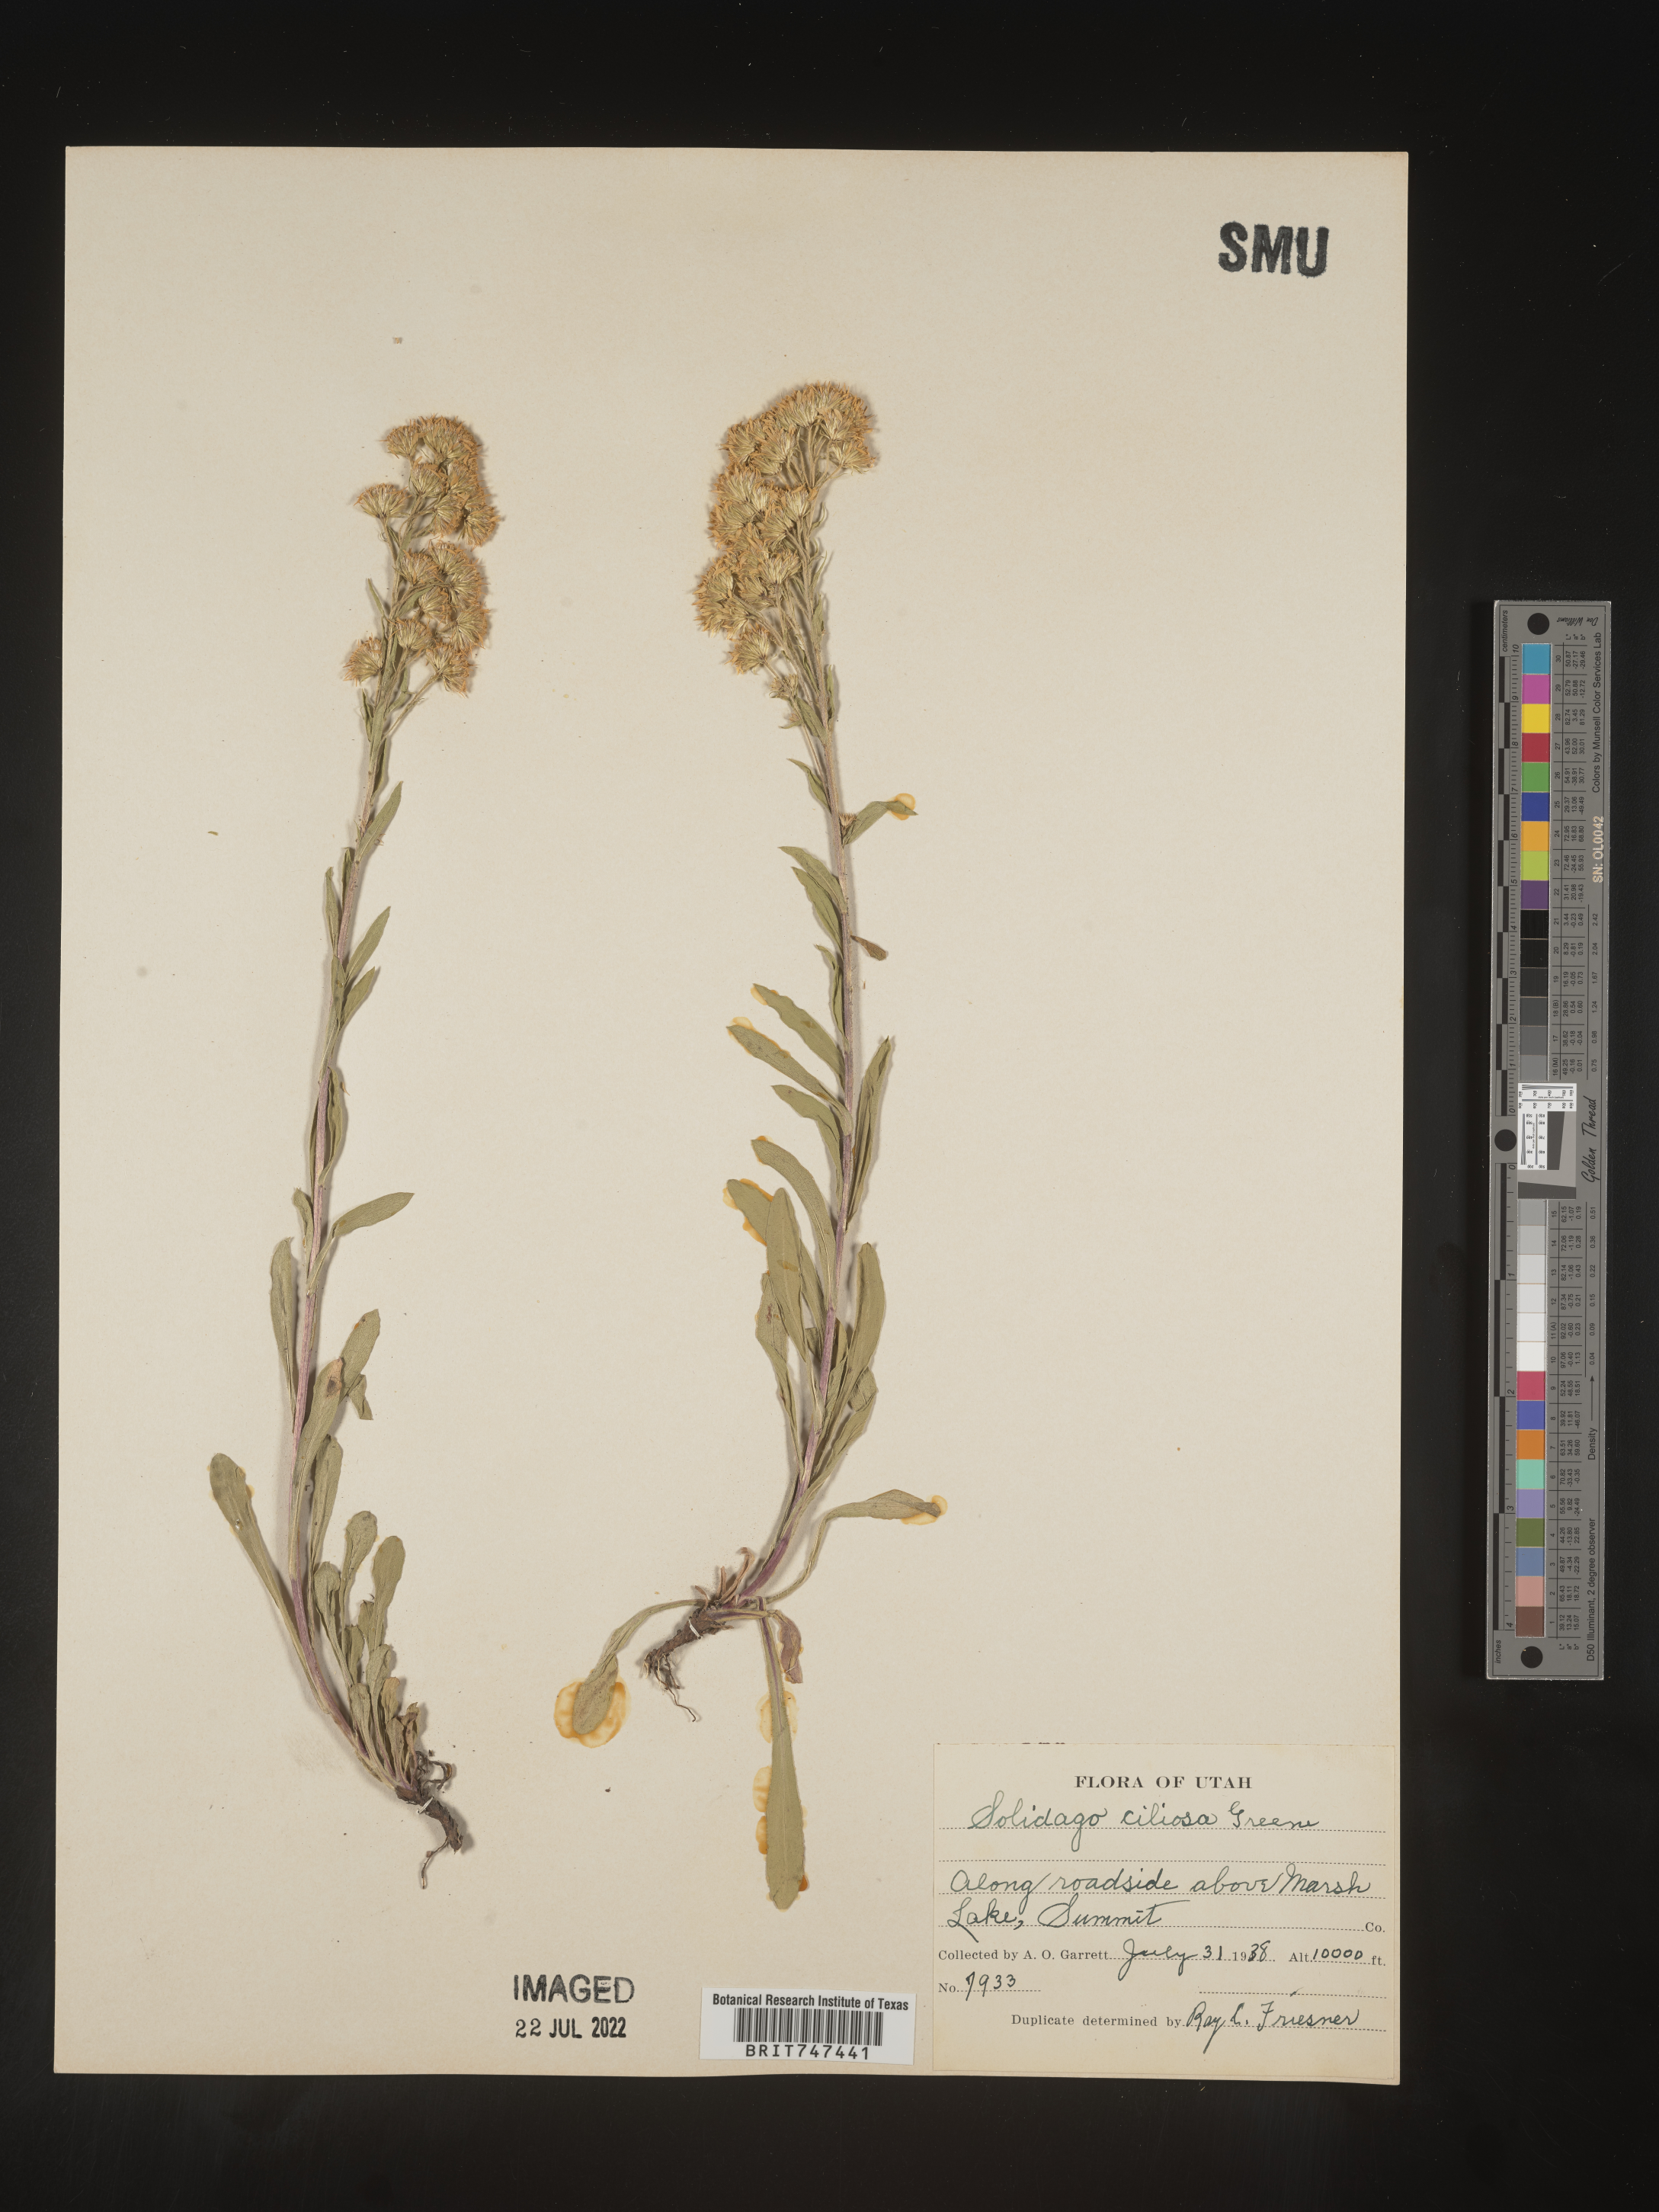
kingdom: Plantae
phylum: Tracheophyta
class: Magnoliopsida
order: Asterales
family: Asteraceae
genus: Solidago
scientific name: Solidago multiradiata
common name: Northern goldenrod
